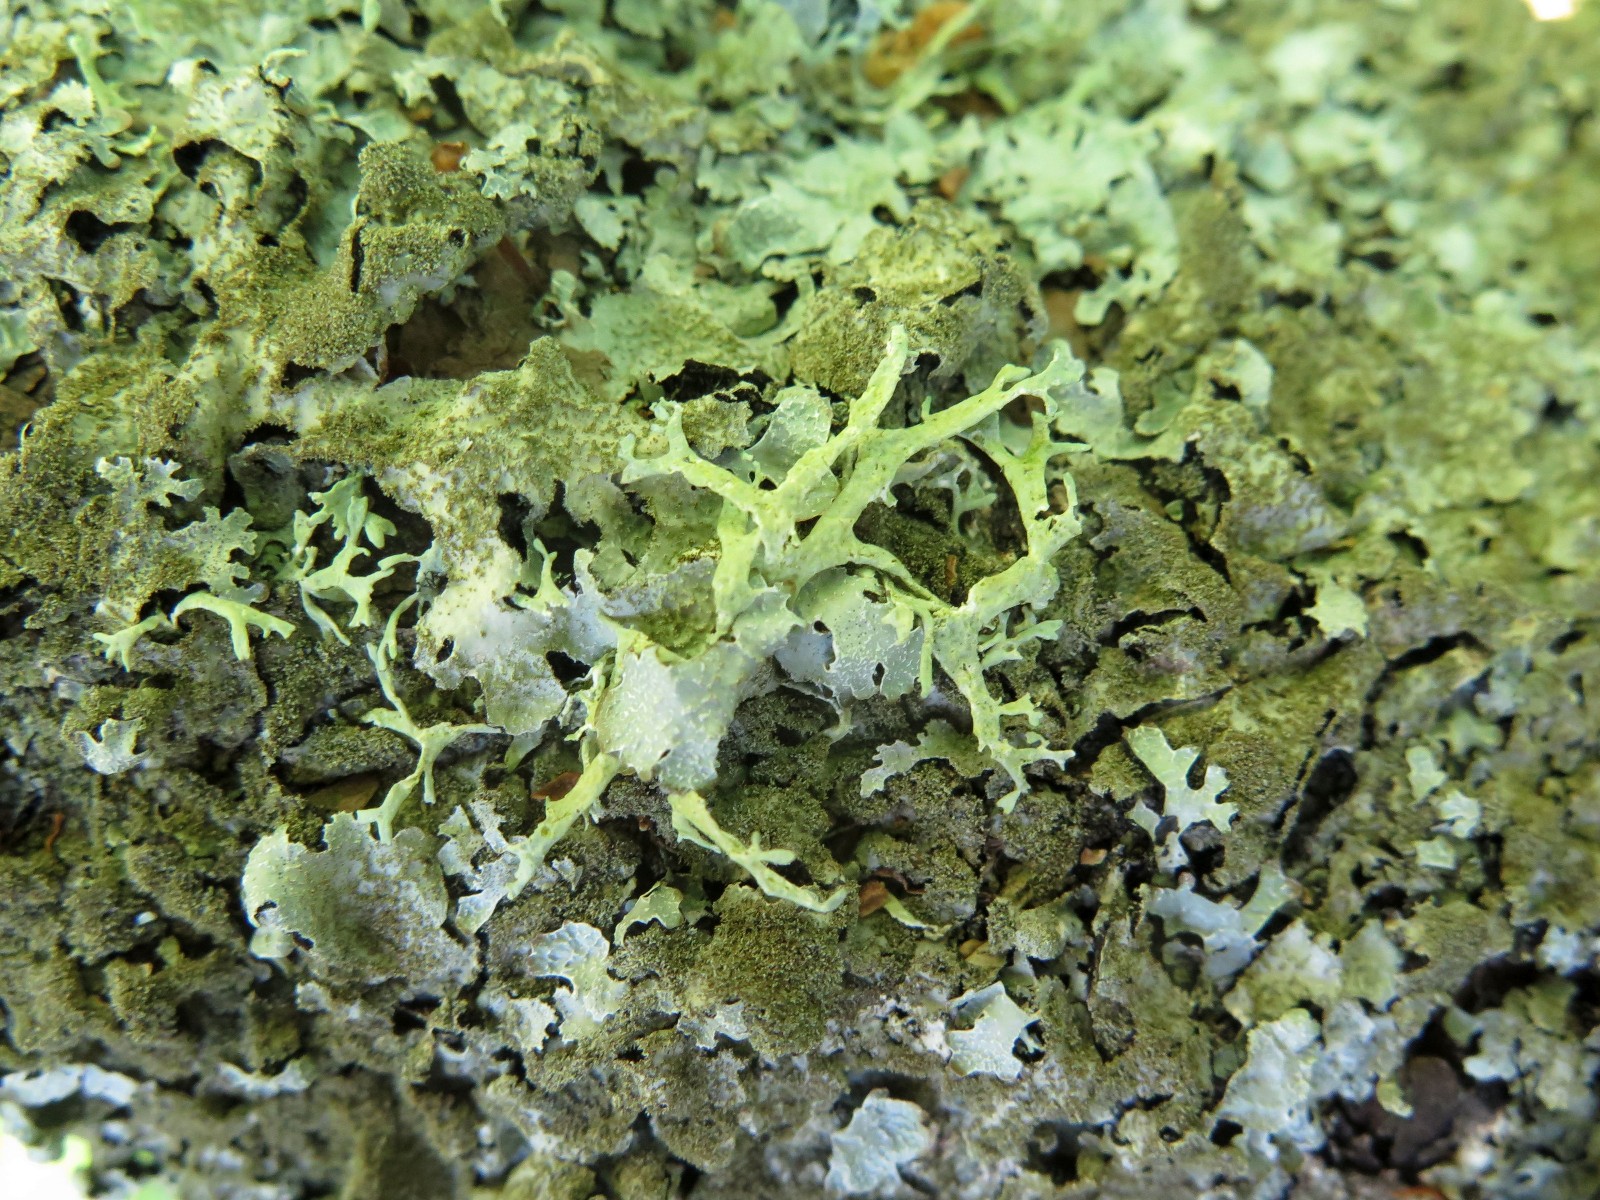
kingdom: Fungi
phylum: Ascomycota
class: Lecanoromycetes
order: Lecanorales
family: Parmeliaceae
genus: Evernia
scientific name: Evernia prunastri
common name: almindelig slåenlav
